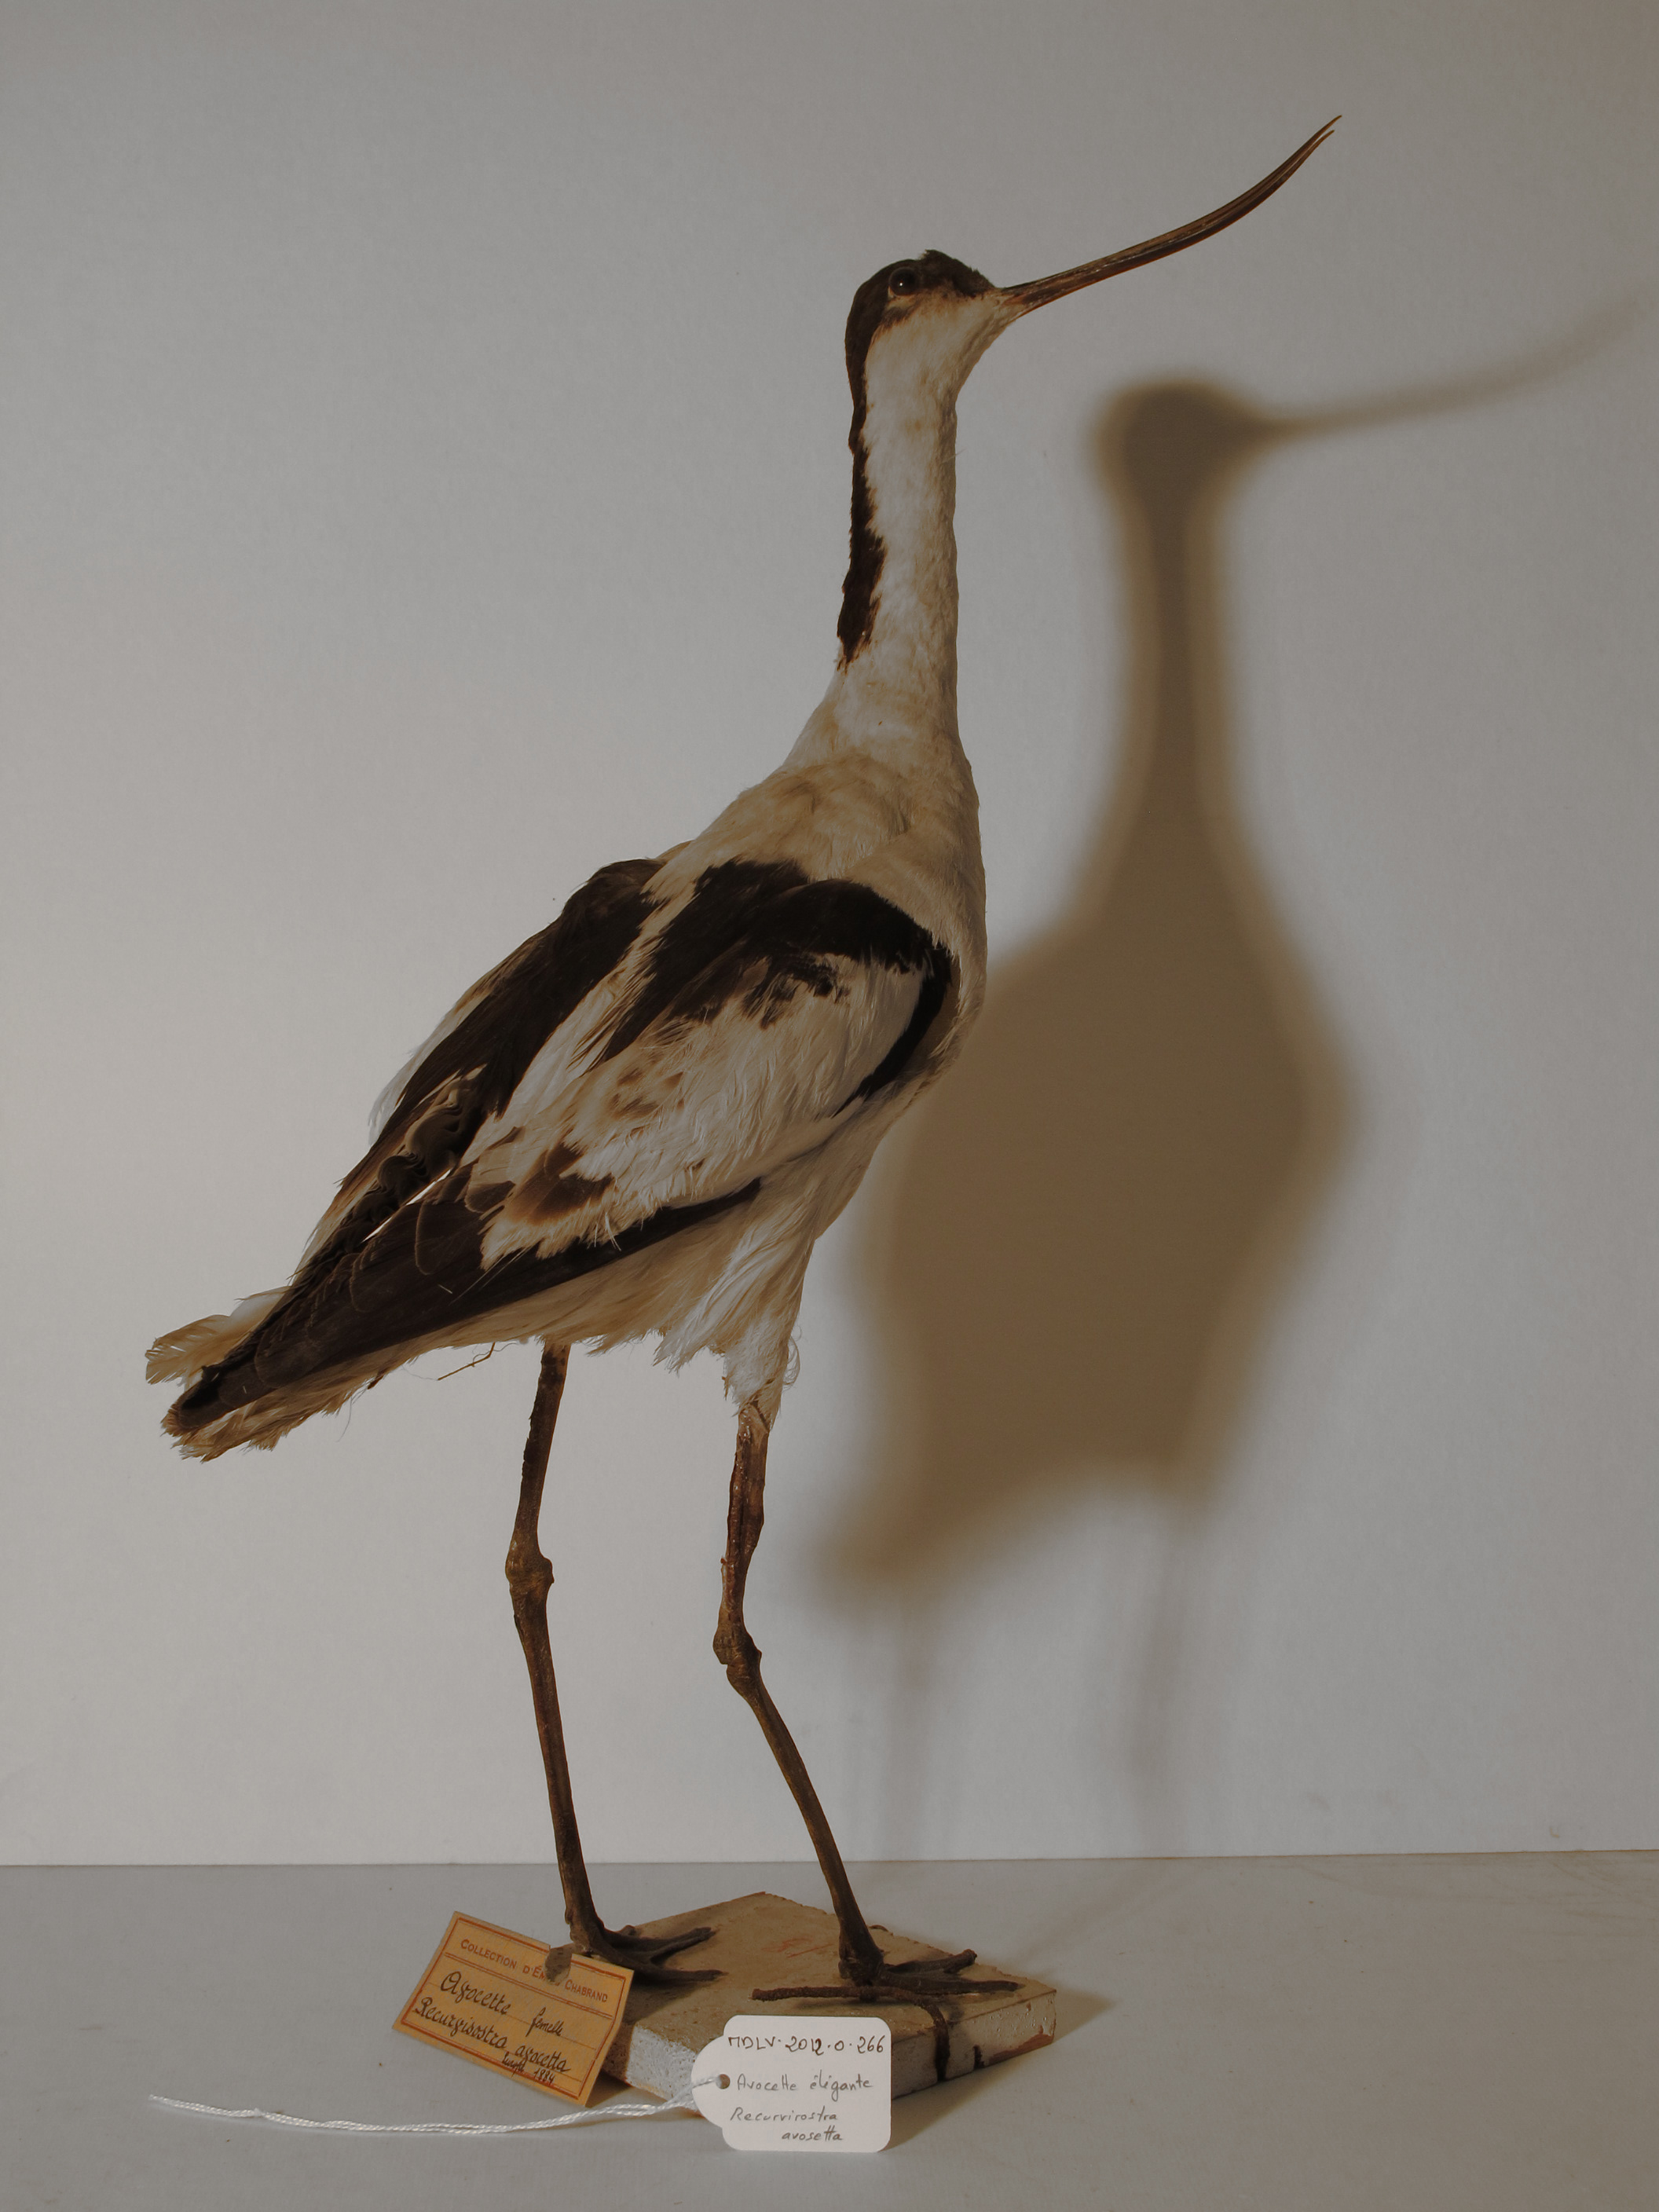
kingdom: Animalia
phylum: Chordata
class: Aves
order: Charadriiformes
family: Recurvirostridae
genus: Recurvirostra
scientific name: Recurvirostra avosetta
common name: Pied Avocet
